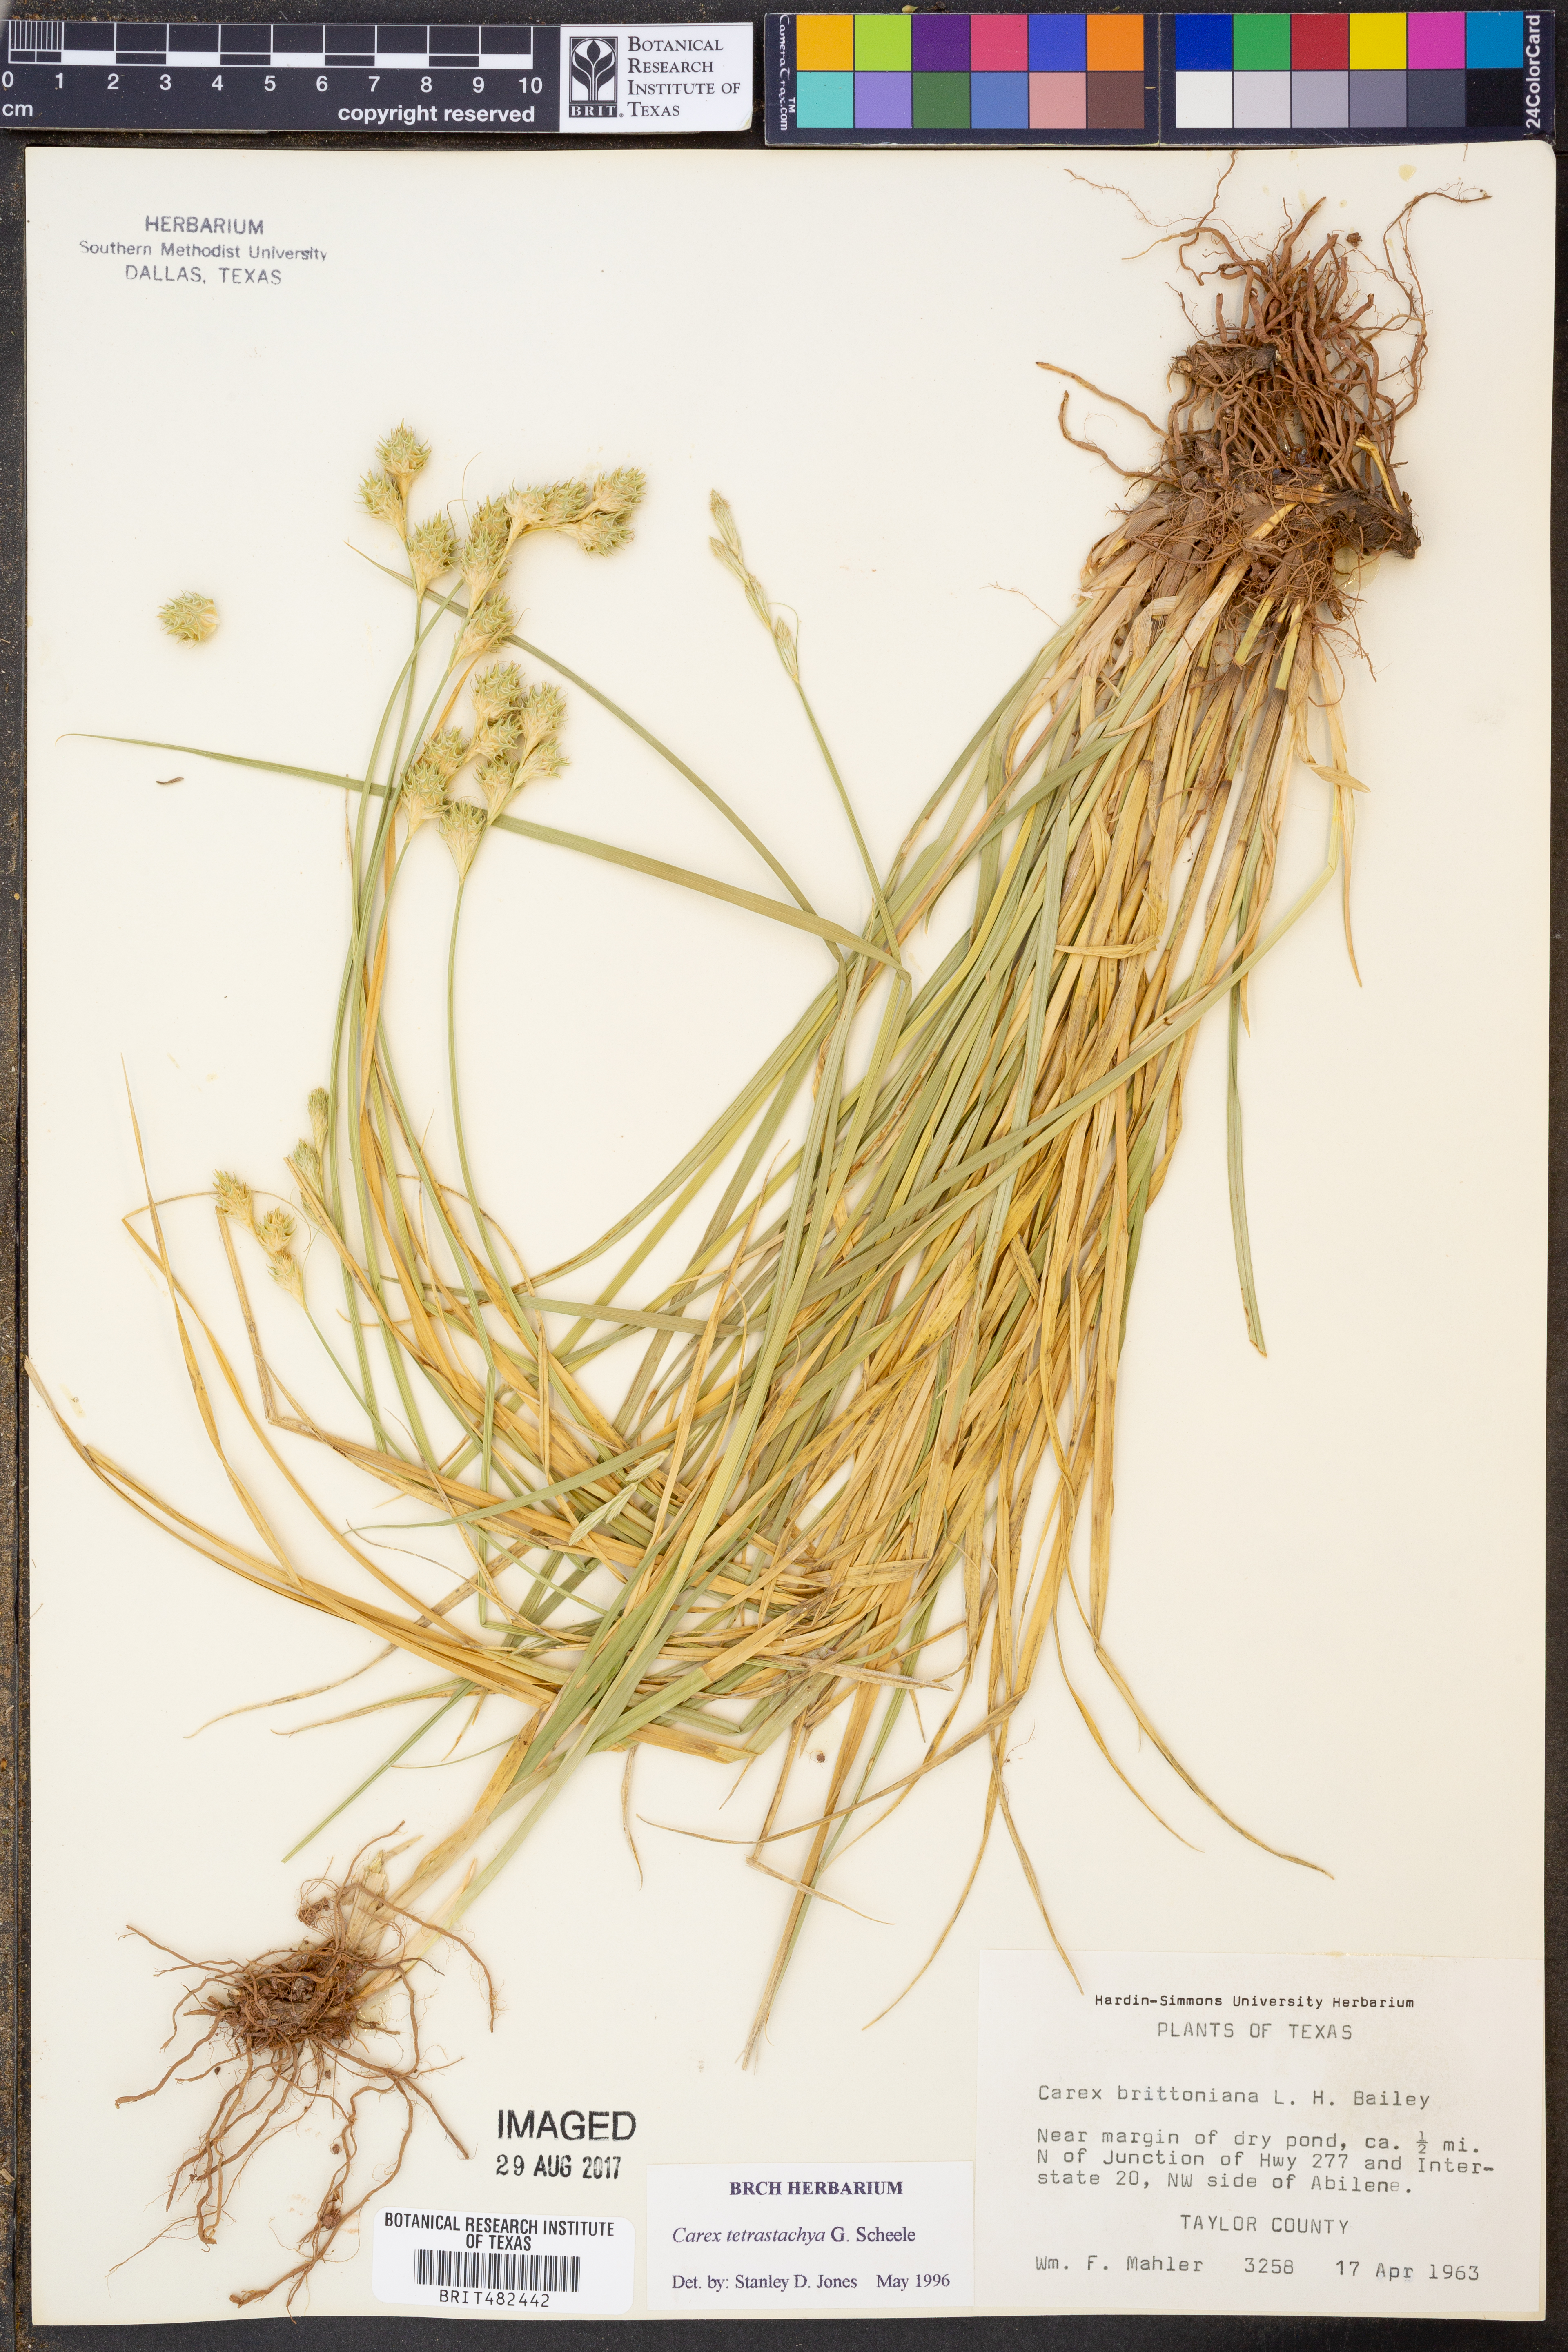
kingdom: Plantae
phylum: Tracheophyta
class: Liliopsida
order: Poales
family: Cyperaceae
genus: Carex
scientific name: Carex tetrastachya
